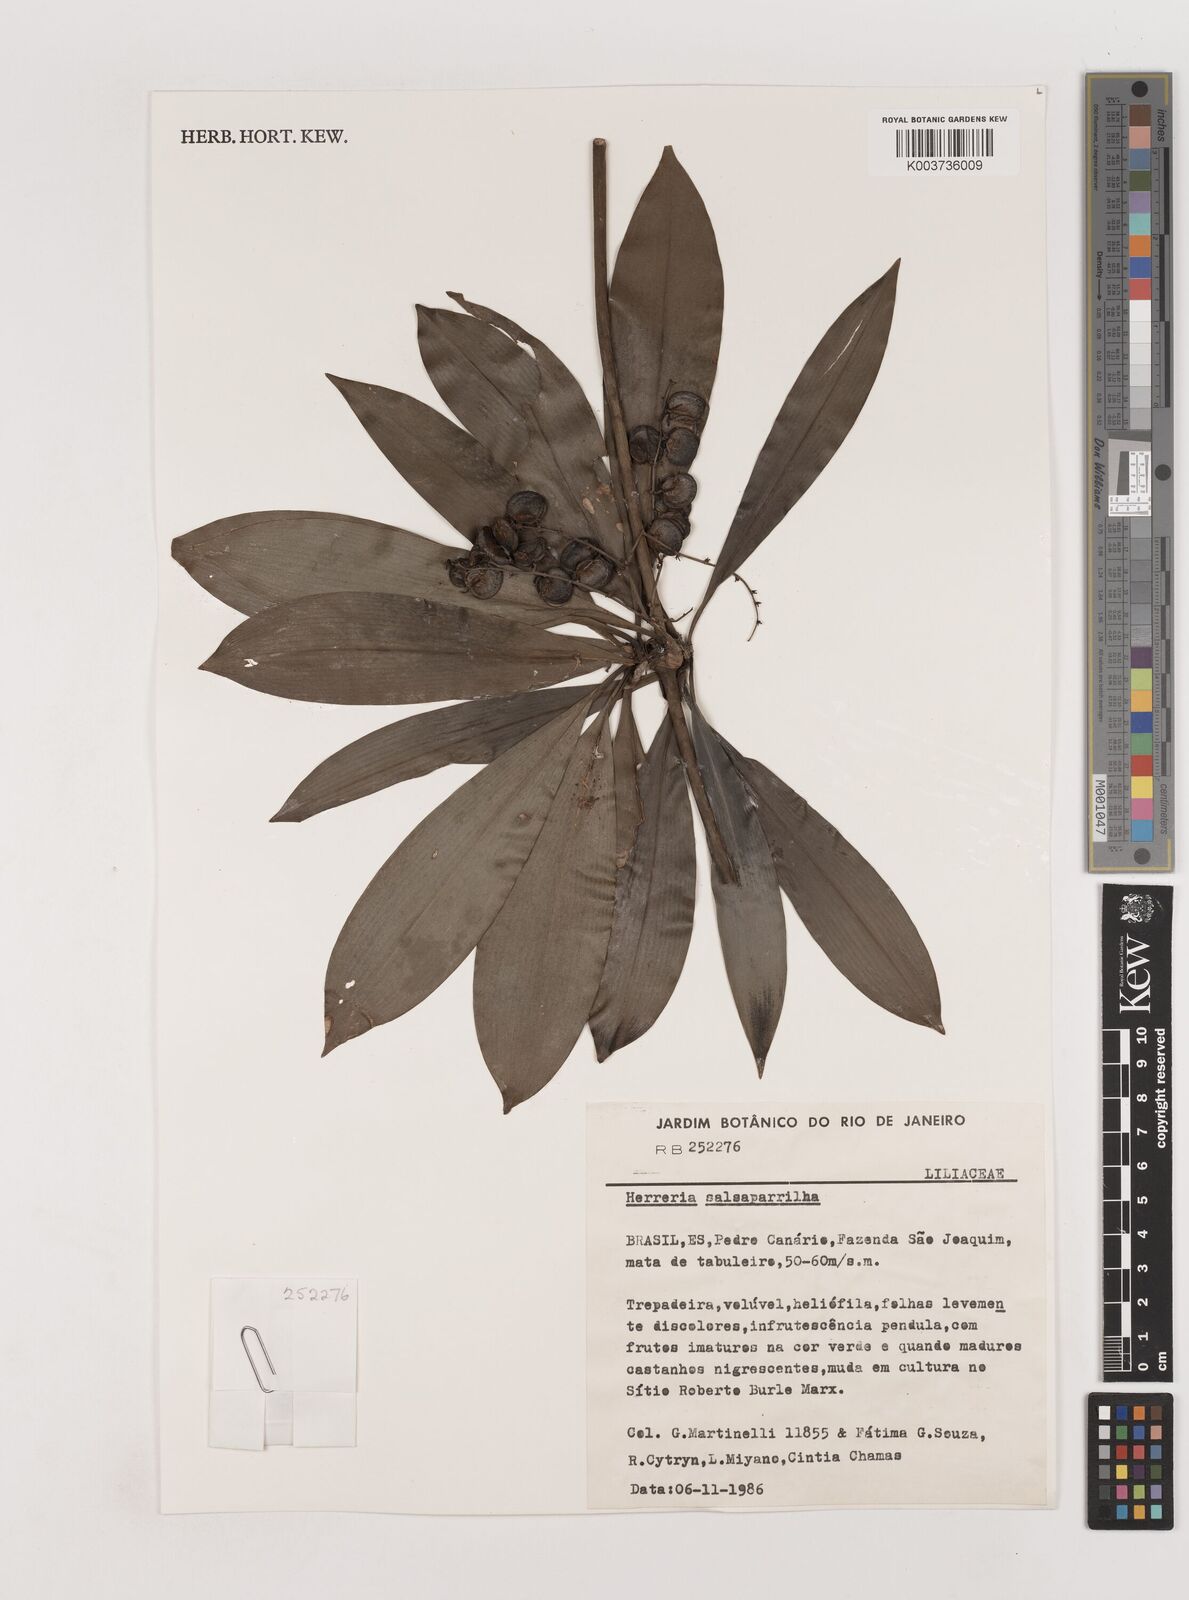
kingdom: Plantae
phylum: Tracheophyta
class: Liliopsida
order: Asparagales
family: Asparagaceae
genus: Herreria
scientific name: Herreria salsaparilha
